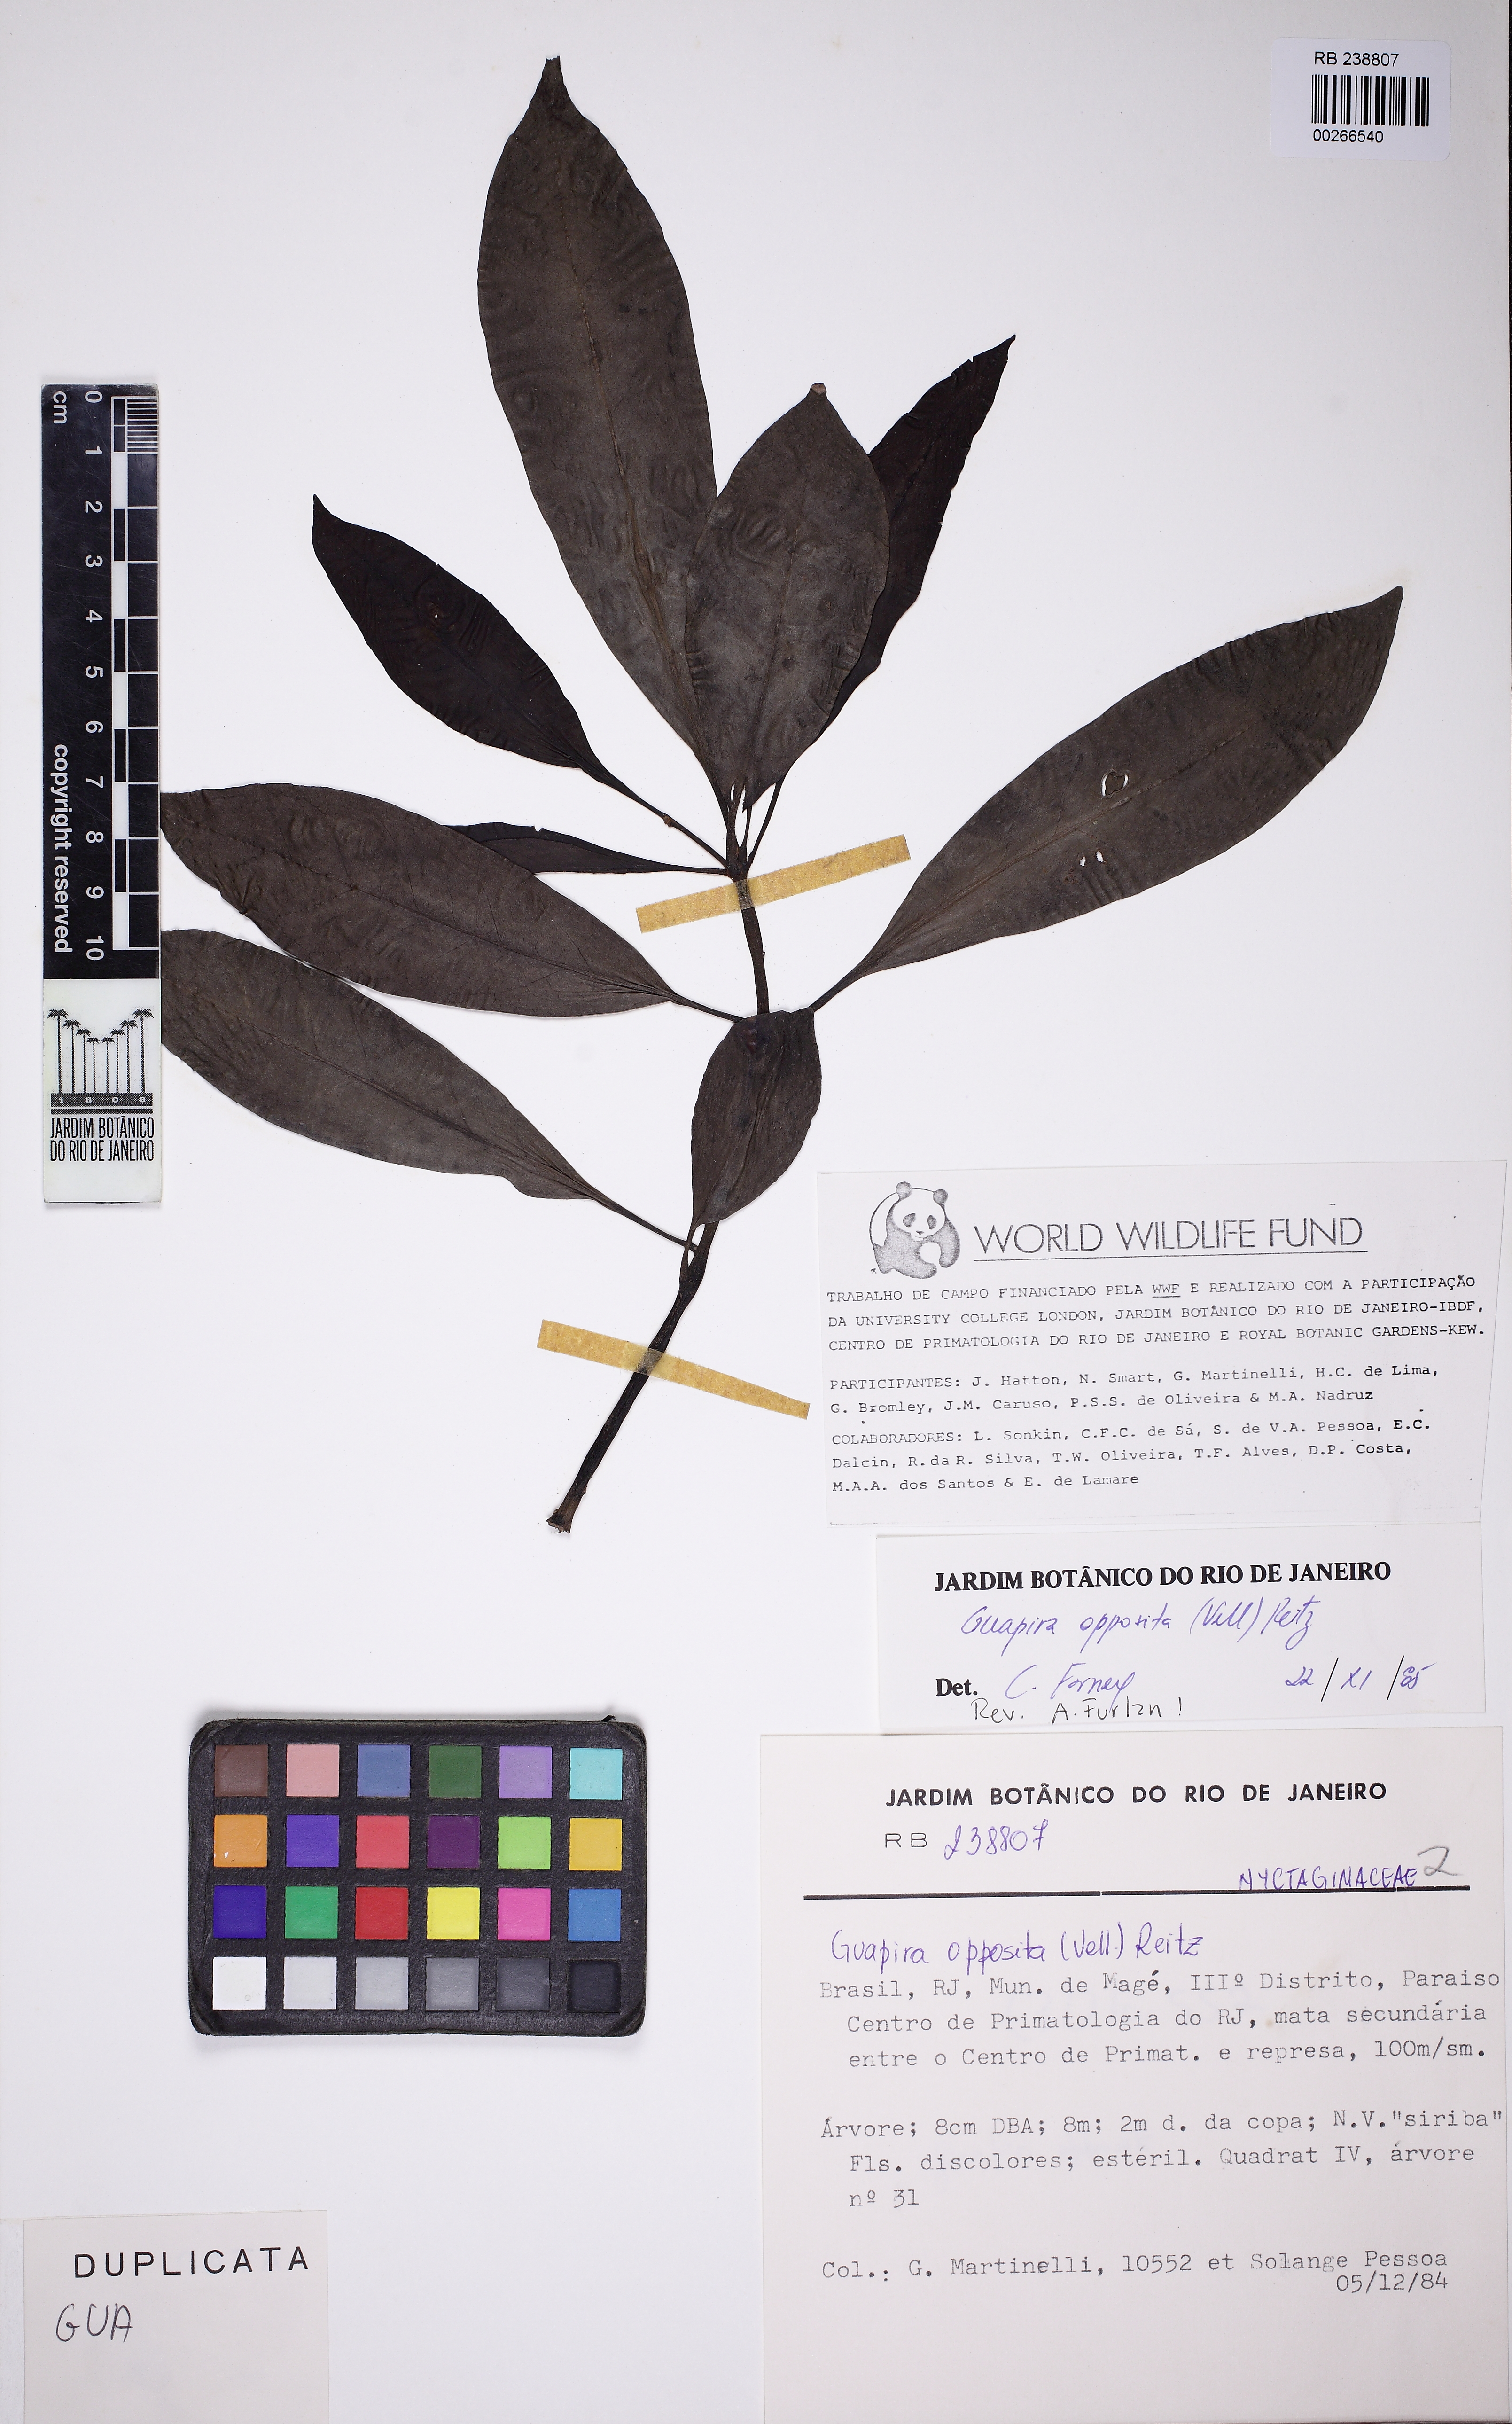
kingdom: Plantae
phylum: Tracheophyta
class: Magnoliopsida
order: Caryophyllales
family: Nyctaginaceae
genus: Guapira
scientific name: Guapira opposita
